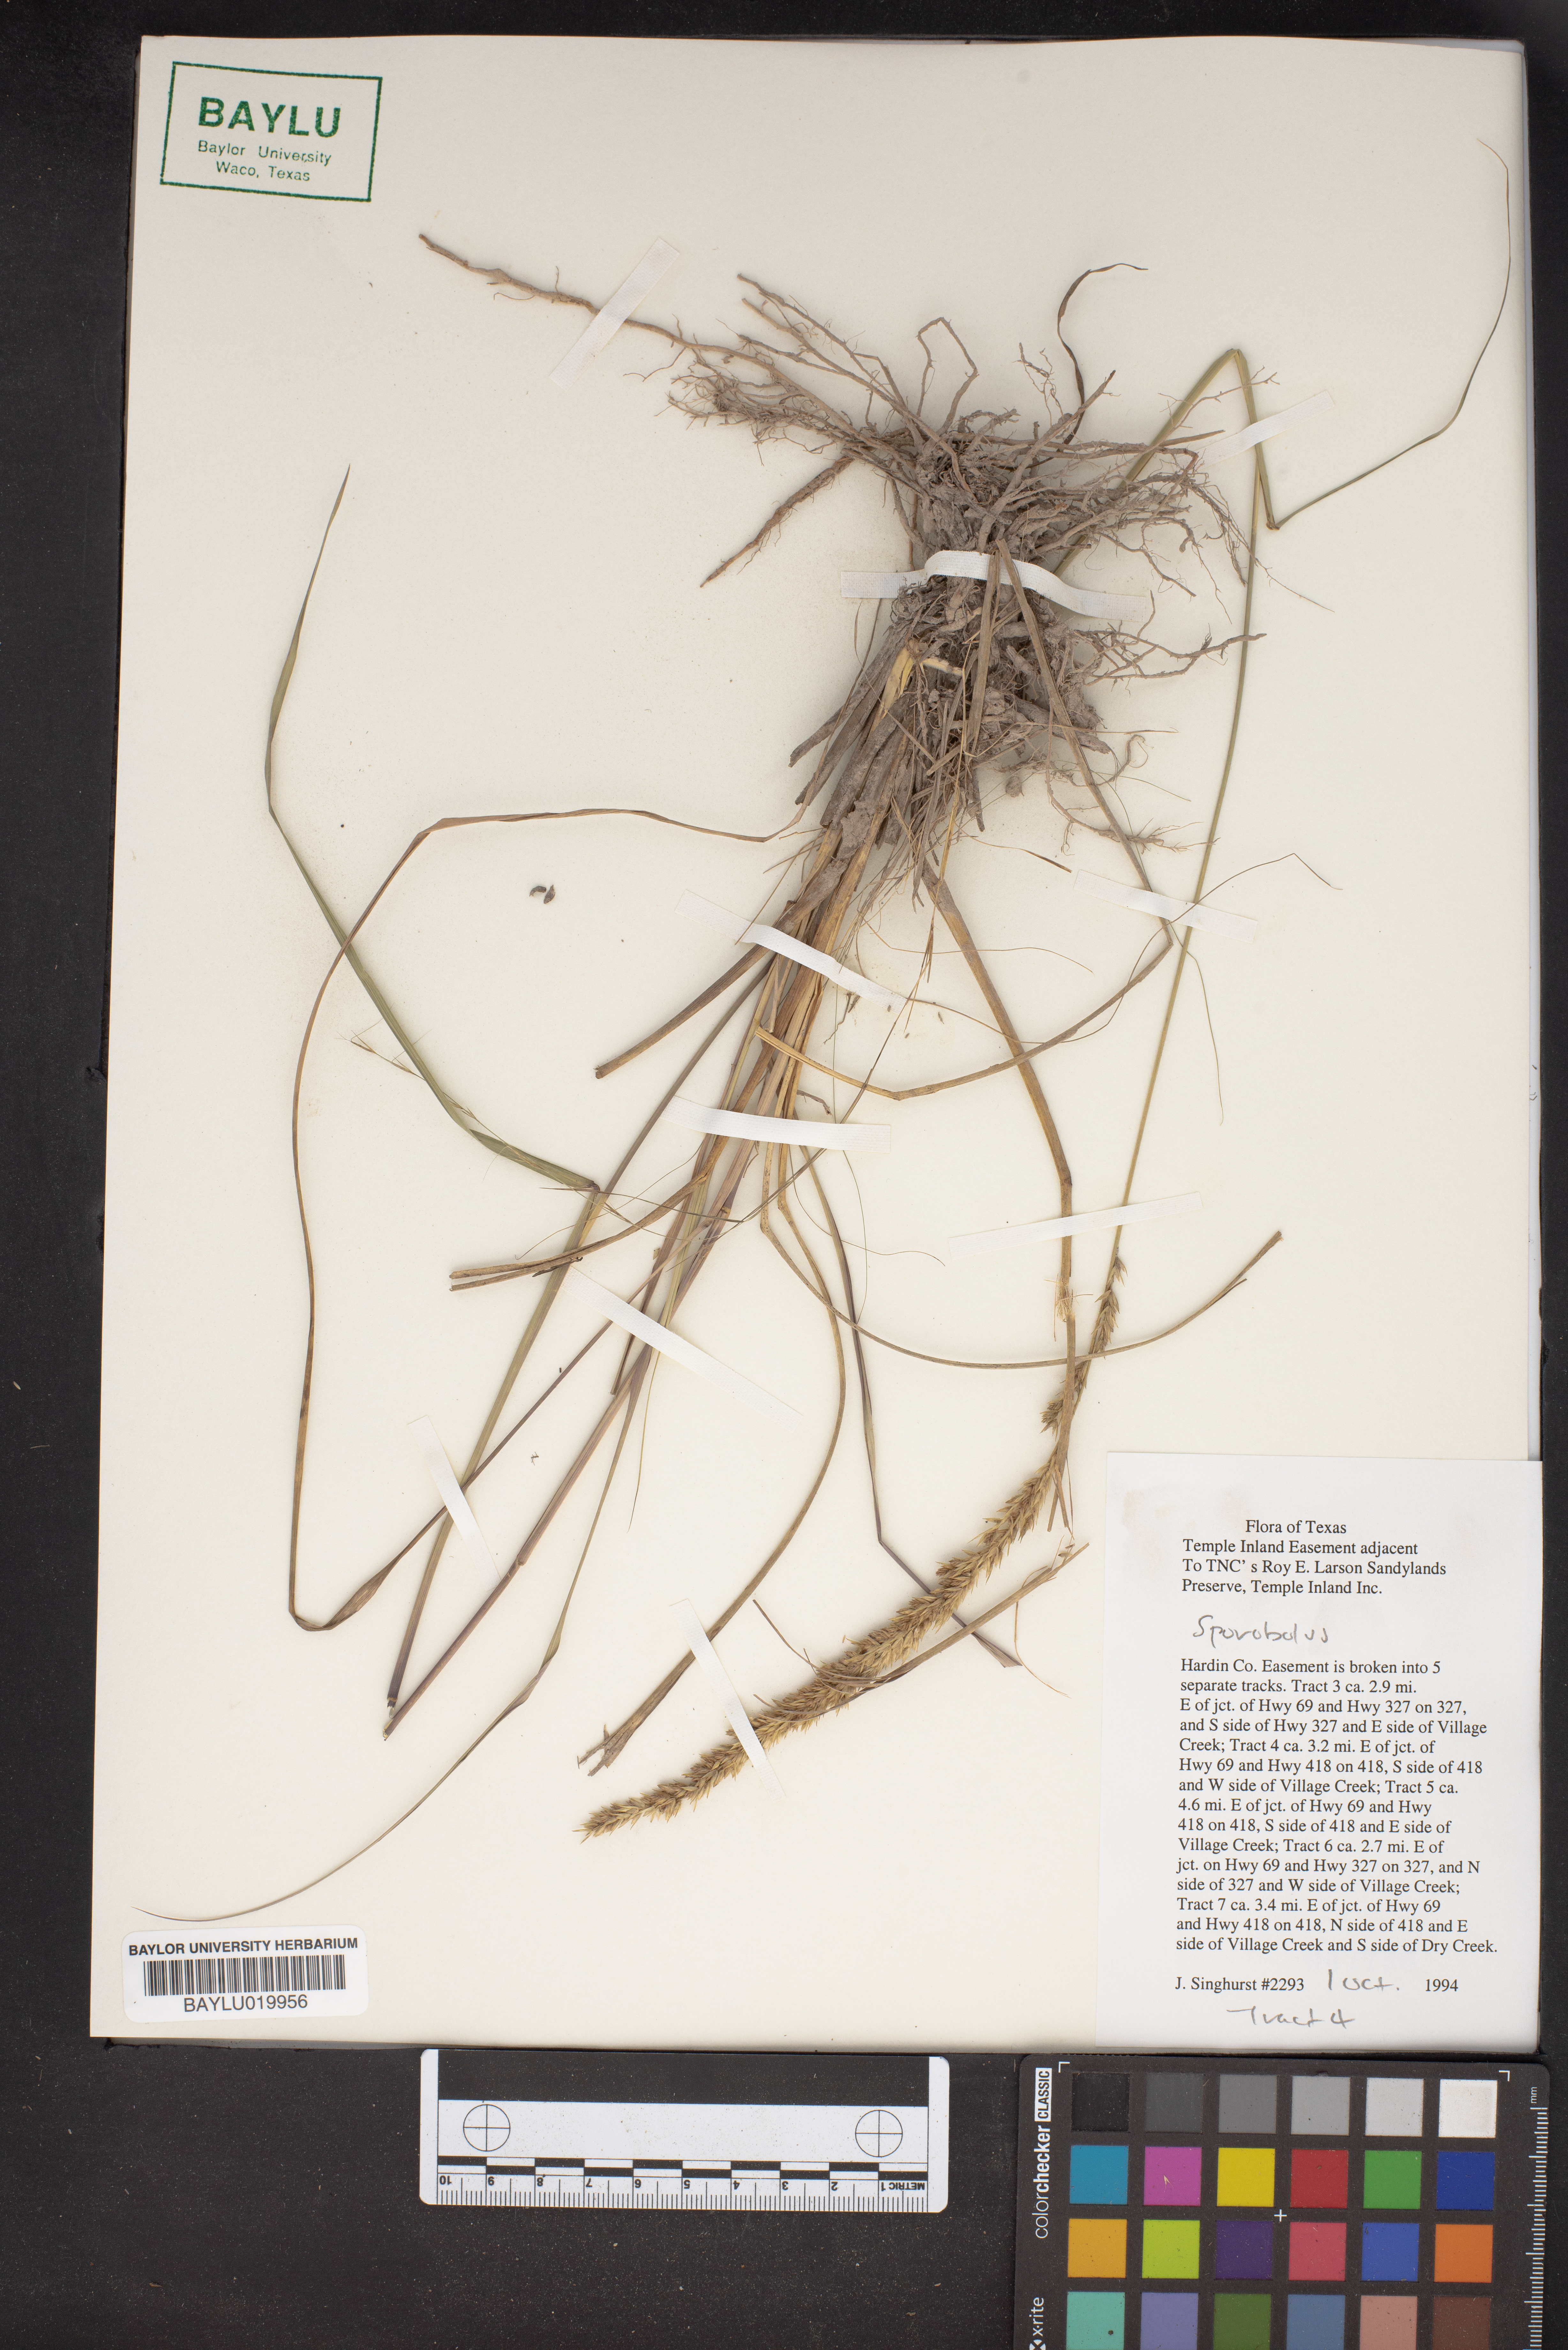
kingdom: Plantae
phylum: Tracheophyta
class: Liliopsida
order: Poales
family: Poaceae
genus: Sporobolus
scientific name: Sporobolus
